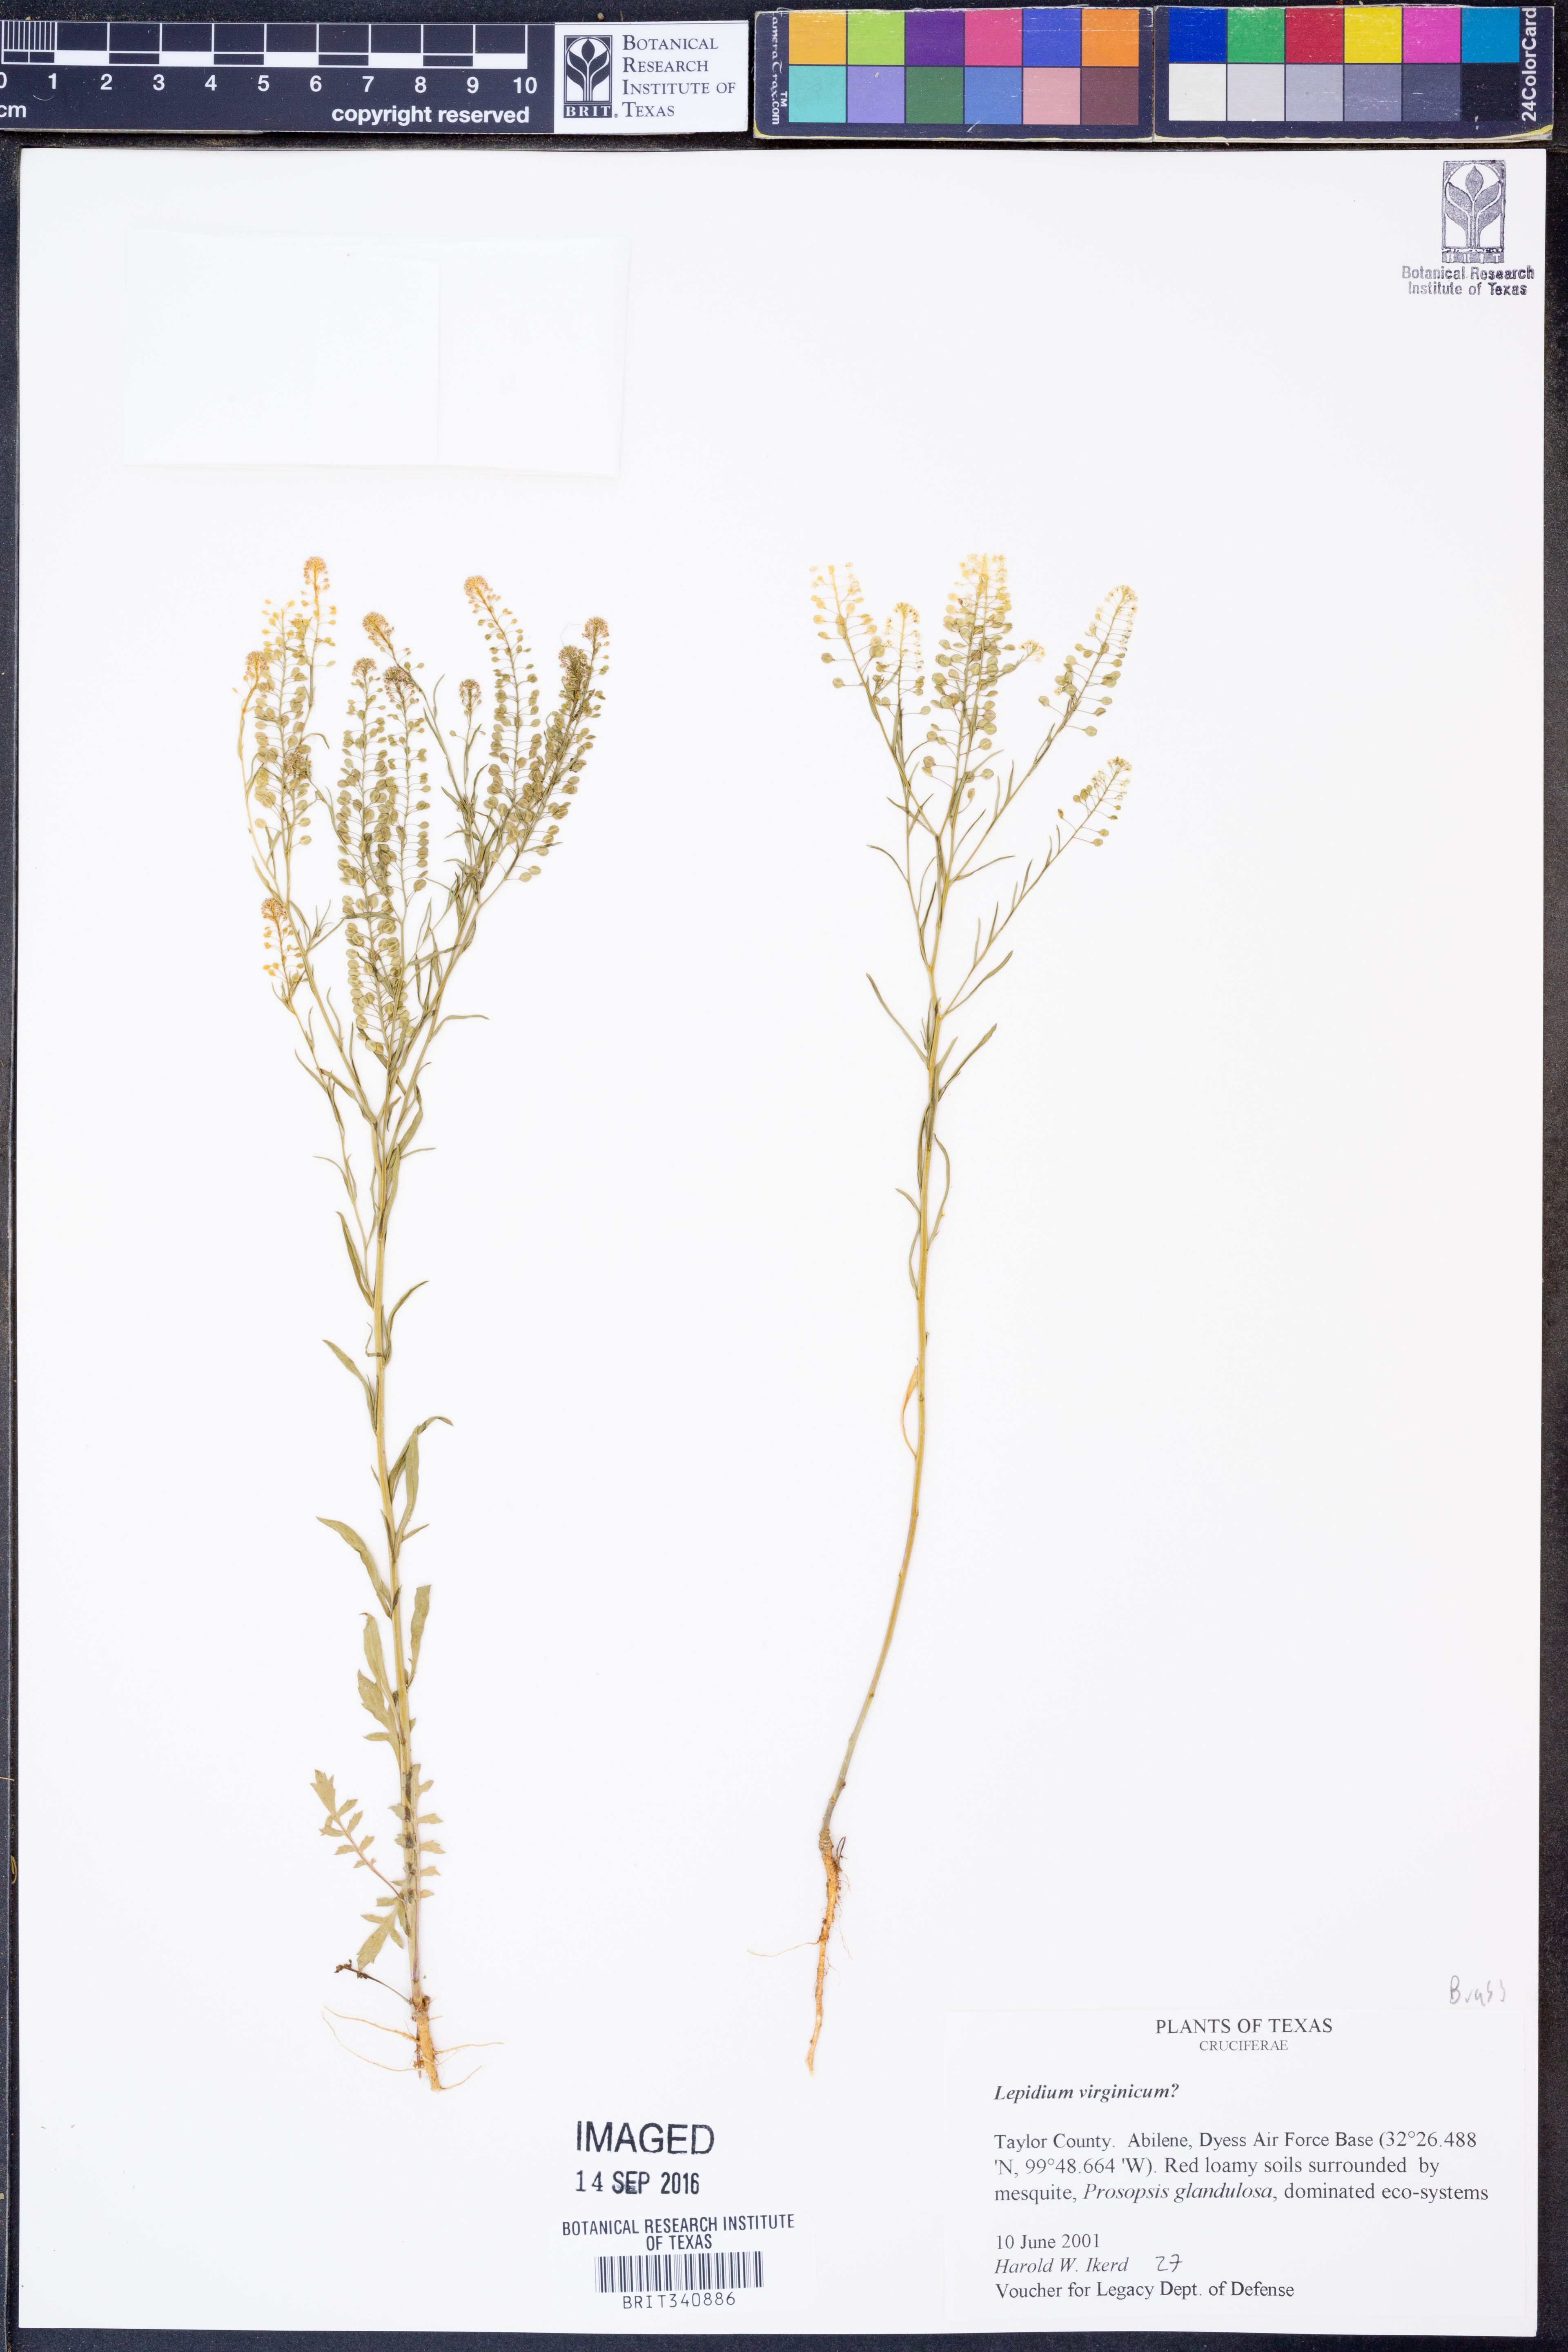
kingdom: Plantae
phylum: Tracheophyta
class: Magnoliopsida
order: Brassicales
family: Brassicaceae
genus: Lepidium
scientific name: Lepidium virginicum
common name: Least pepperwort
